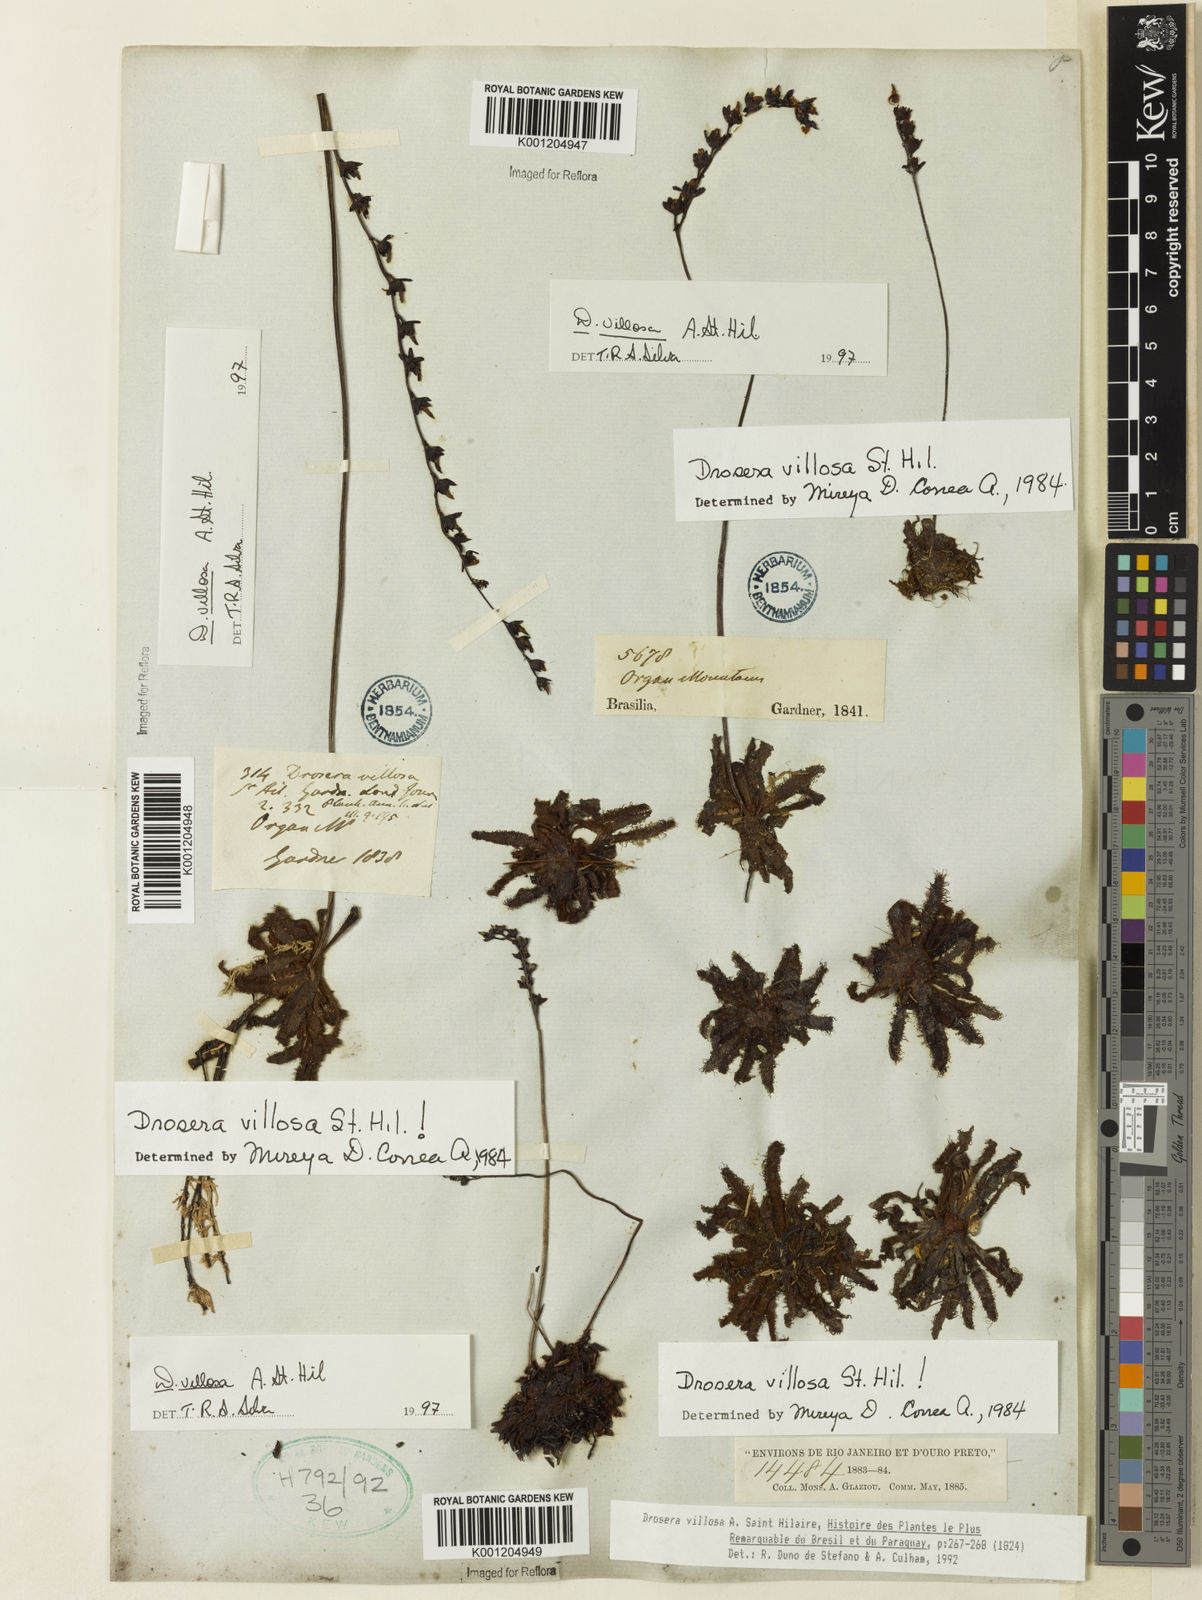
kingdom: Plantae
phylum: Tracheophyta
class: Magnoliopsida
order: Caryophyllales
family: Droseraceae
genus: Drosera
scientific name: Drosera villosa
